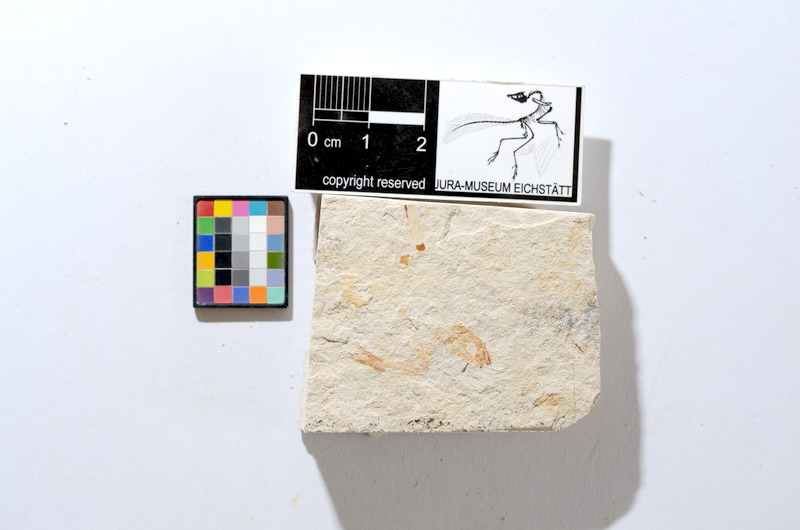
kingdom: Animalia
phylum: Chordata
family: Ascalaboidae
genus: Tharsis
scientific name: Tharsis dubius
